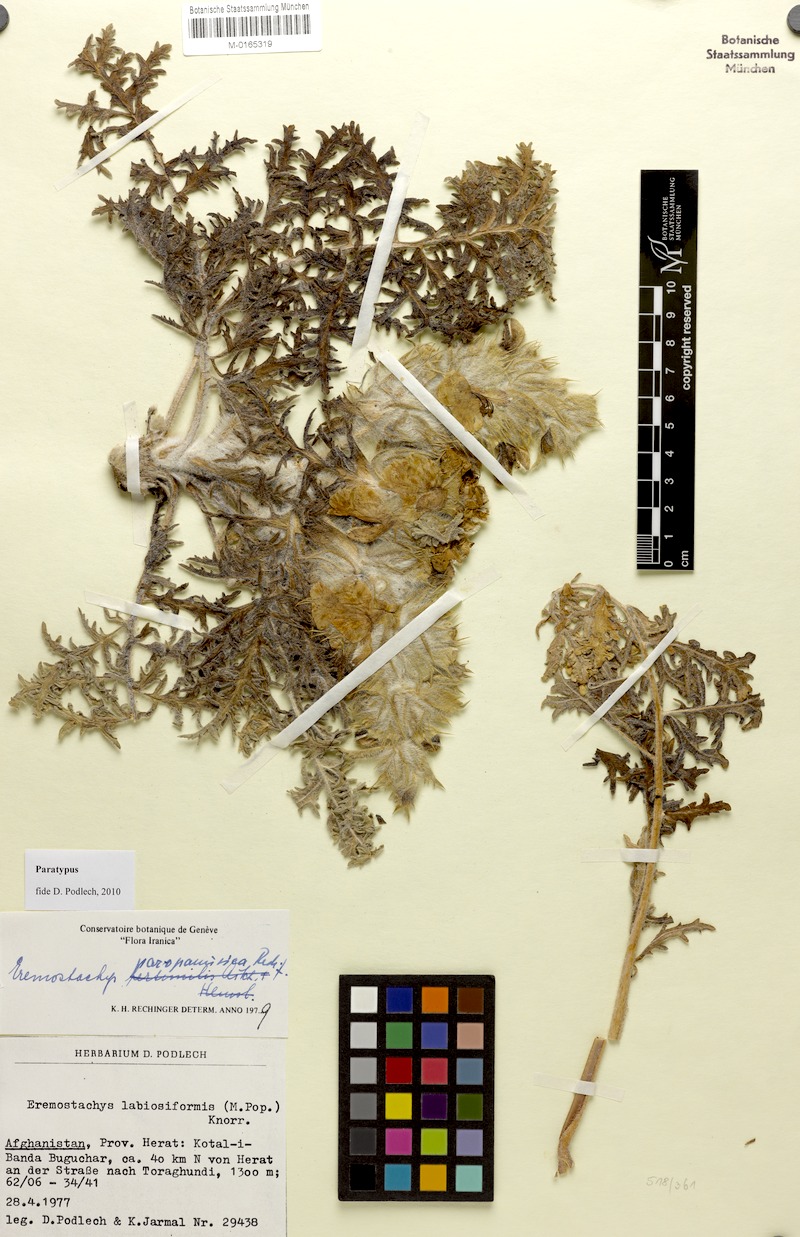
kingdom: Plantae
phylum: Tracheophyta
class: Magnoliopsida
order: Lamiales
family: Lamiaceae
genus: Phlomoides
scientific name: Phlomoides paropamisica
